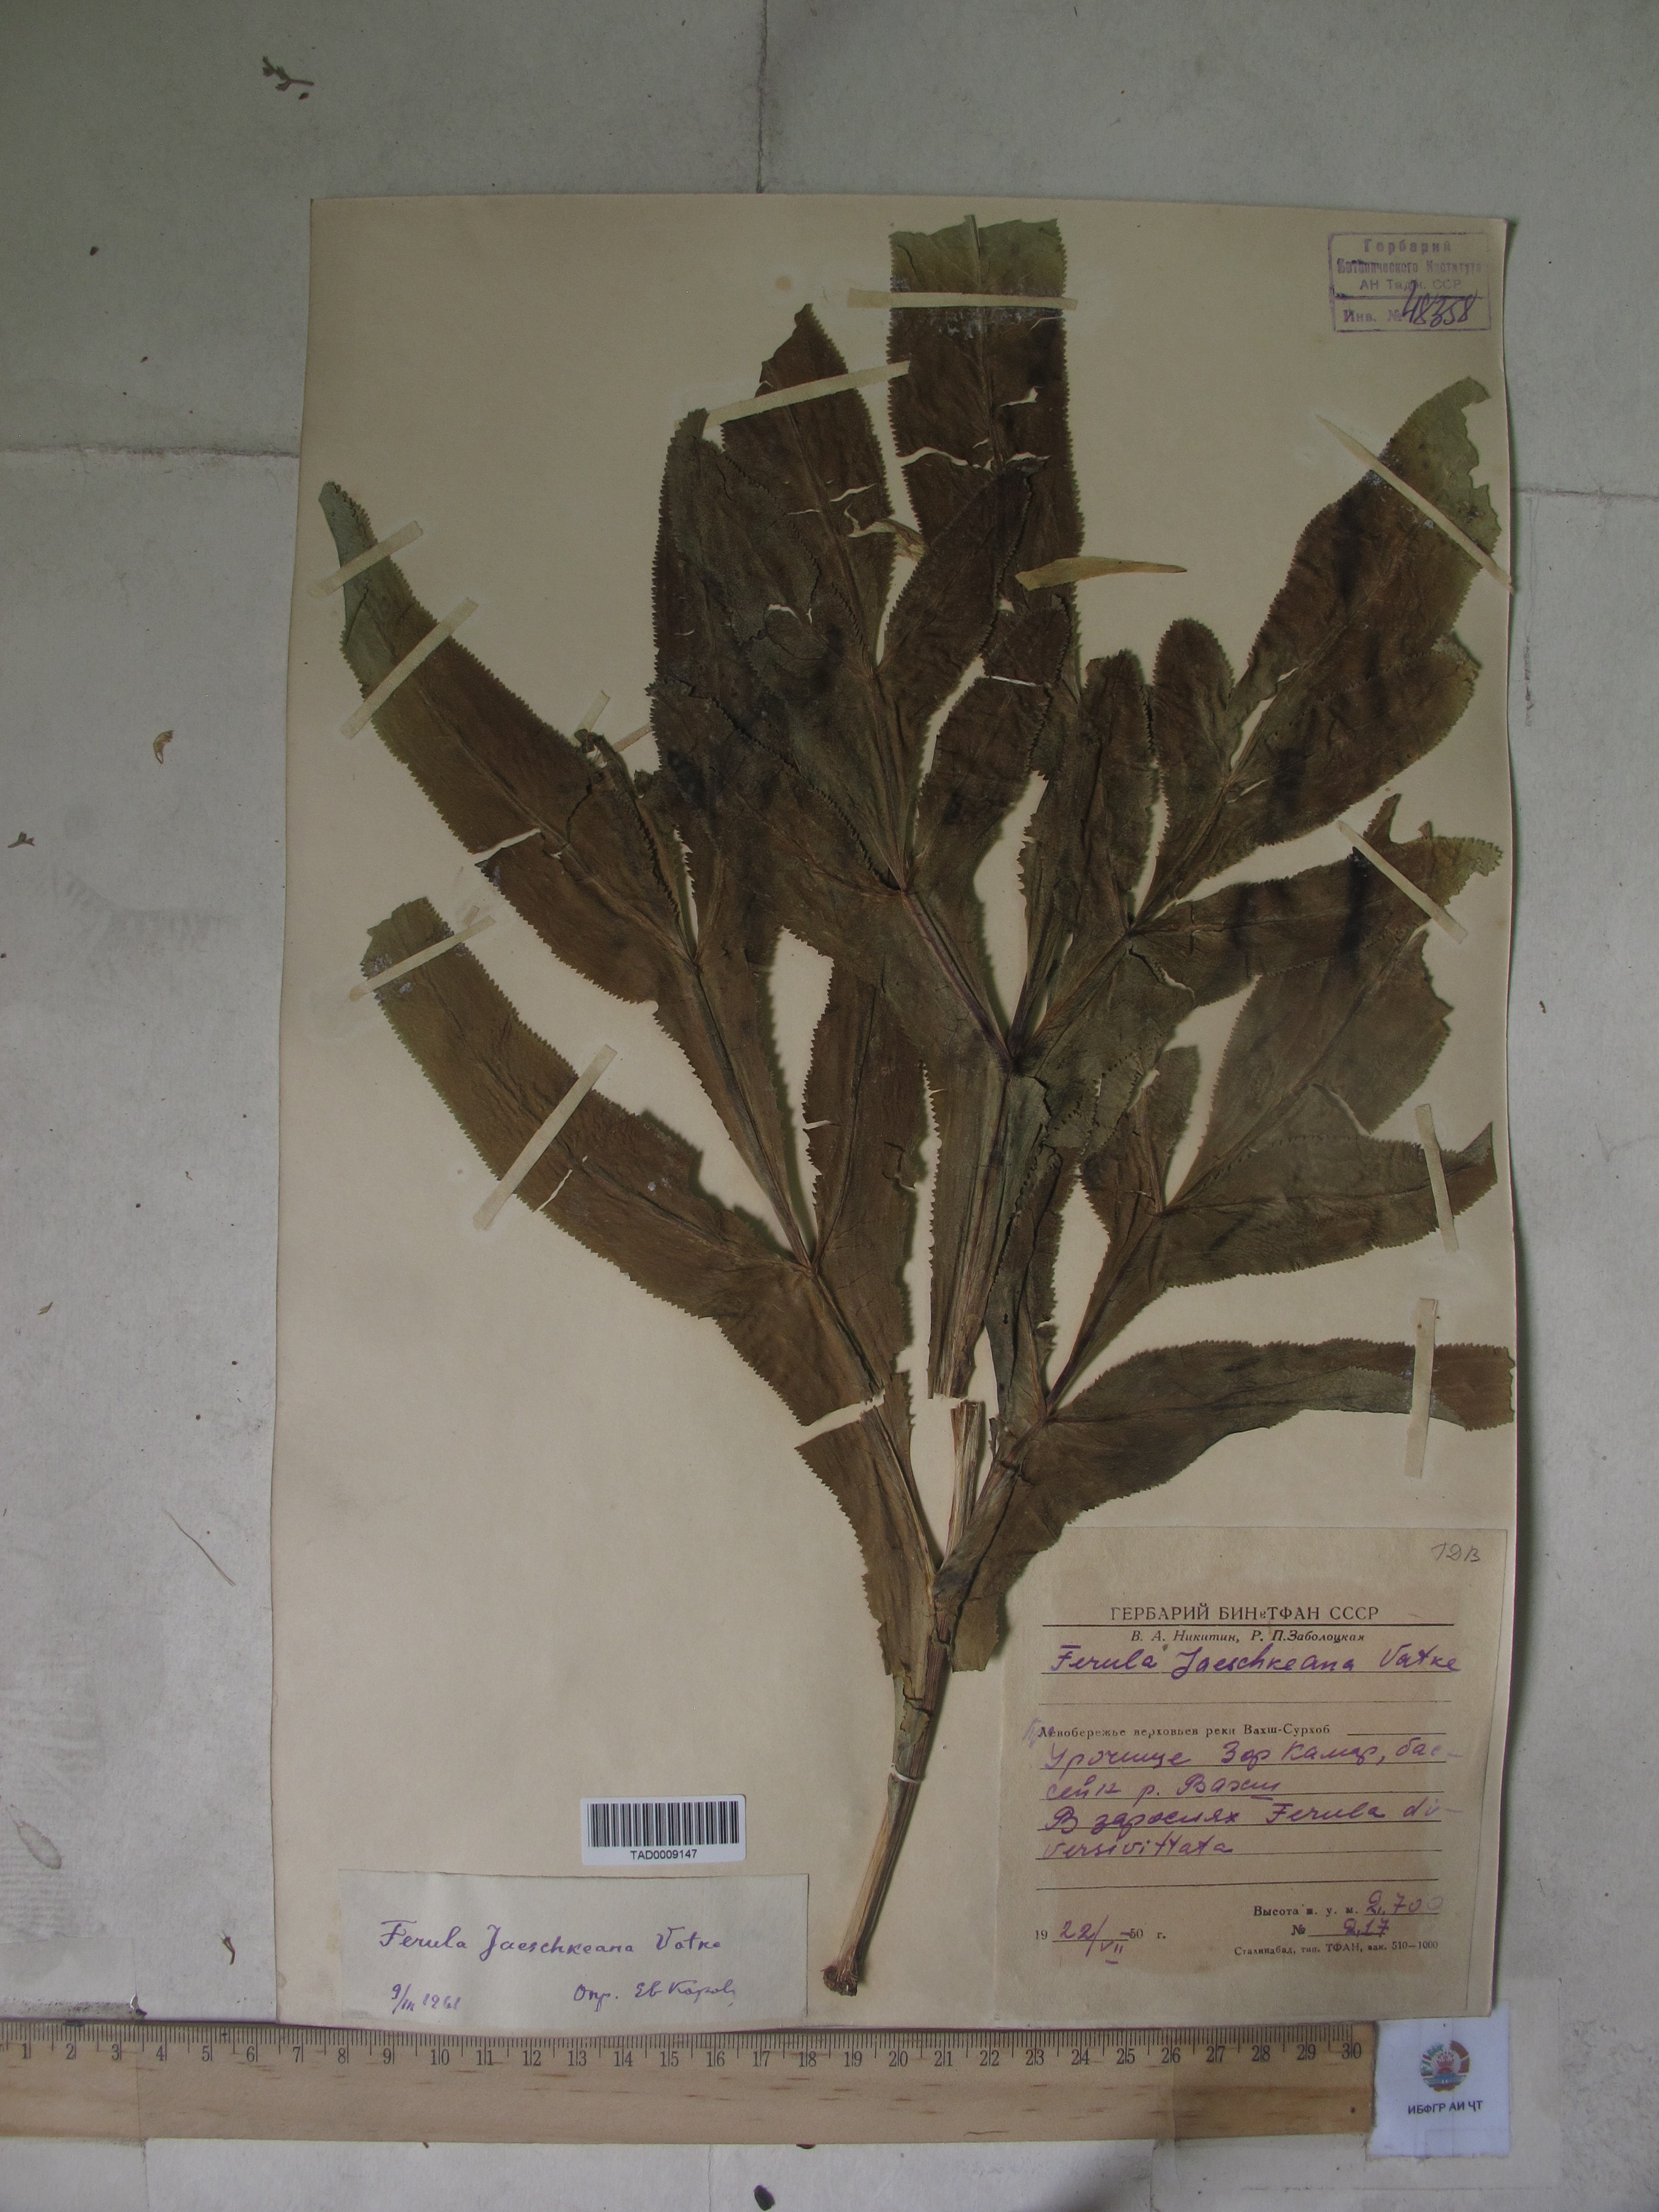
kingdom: Plantae
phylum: Tracheophyta
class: Magnoliopsida
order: Apiales
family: Apiaceae
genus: Ferula
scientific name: Ferula jaeschkeana
